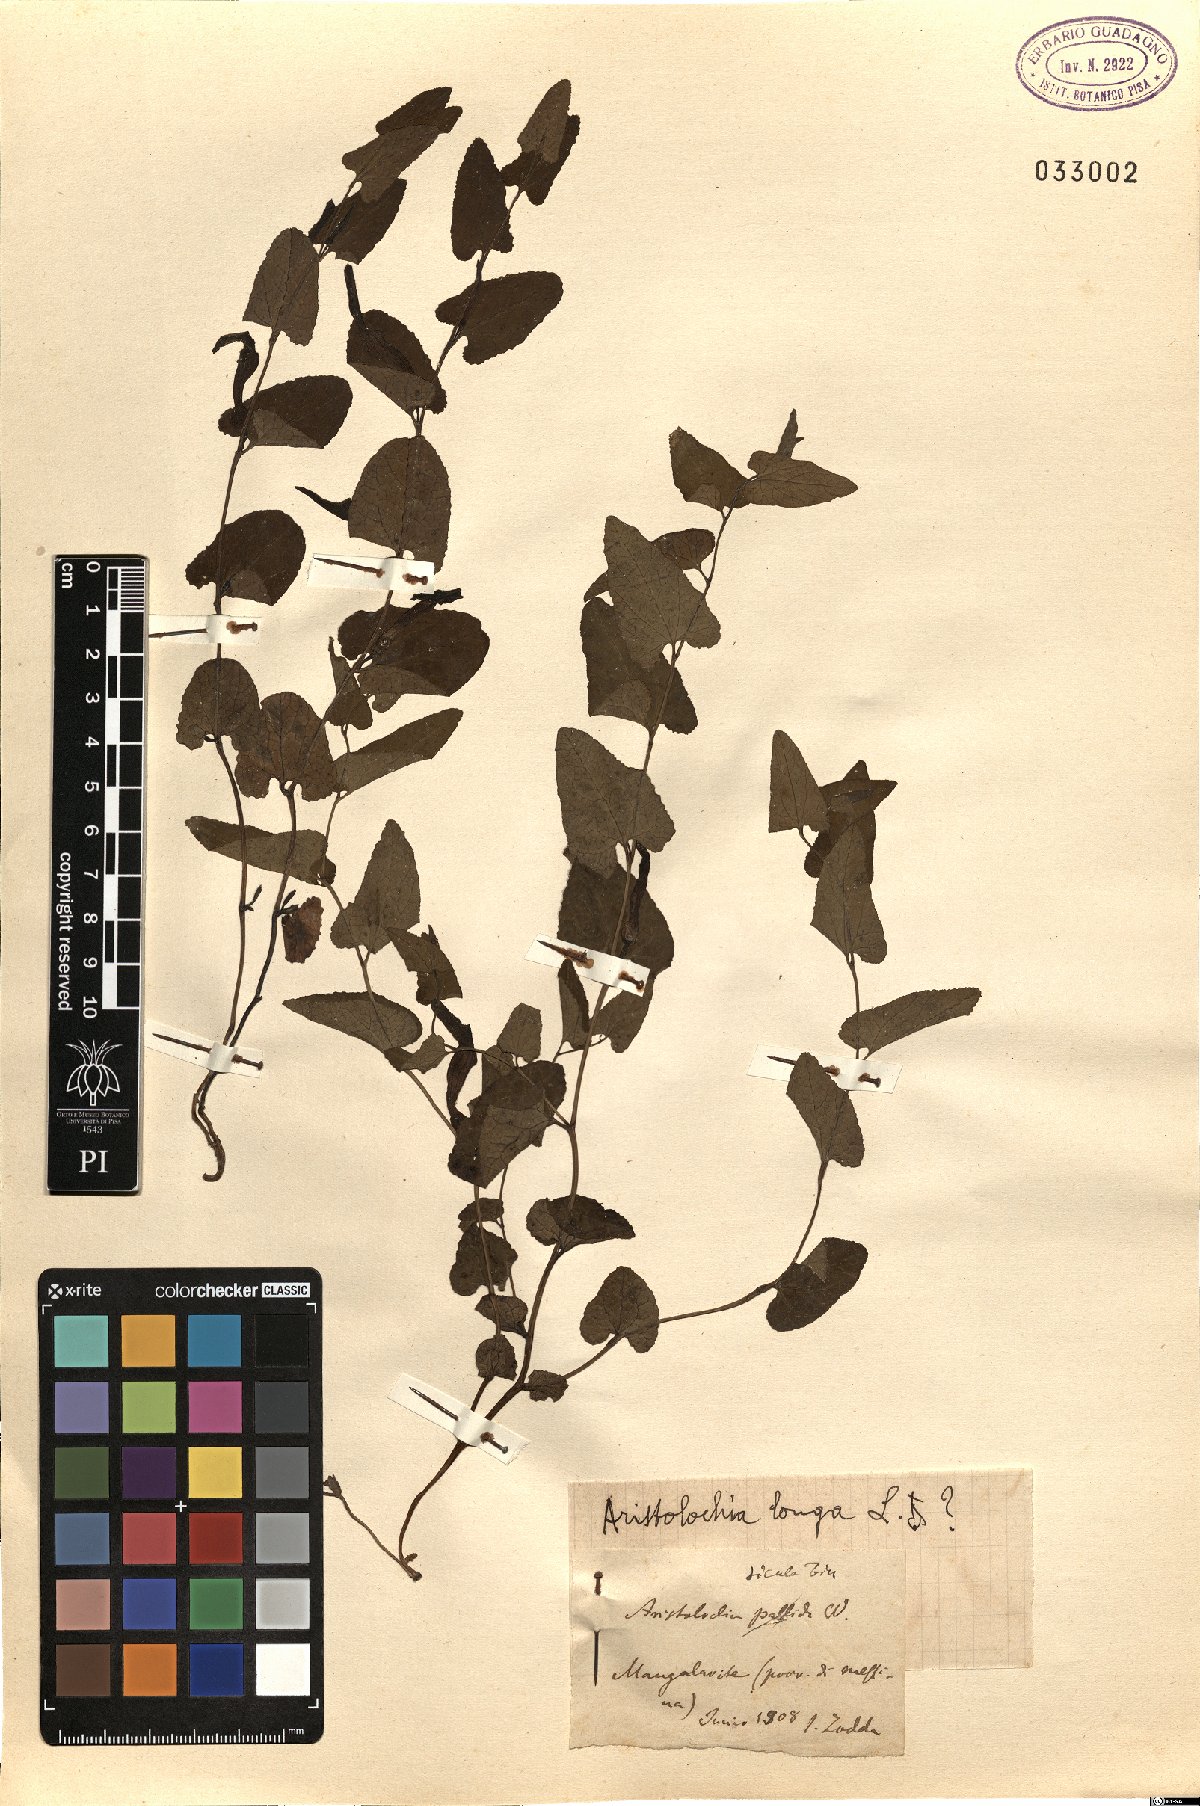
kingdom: Plantae
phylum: Tracheophyta
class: Magnoliopsida
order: Piperales
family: Aristolochiaceae
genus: Aristolochia
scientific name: Aristolochia pallida
